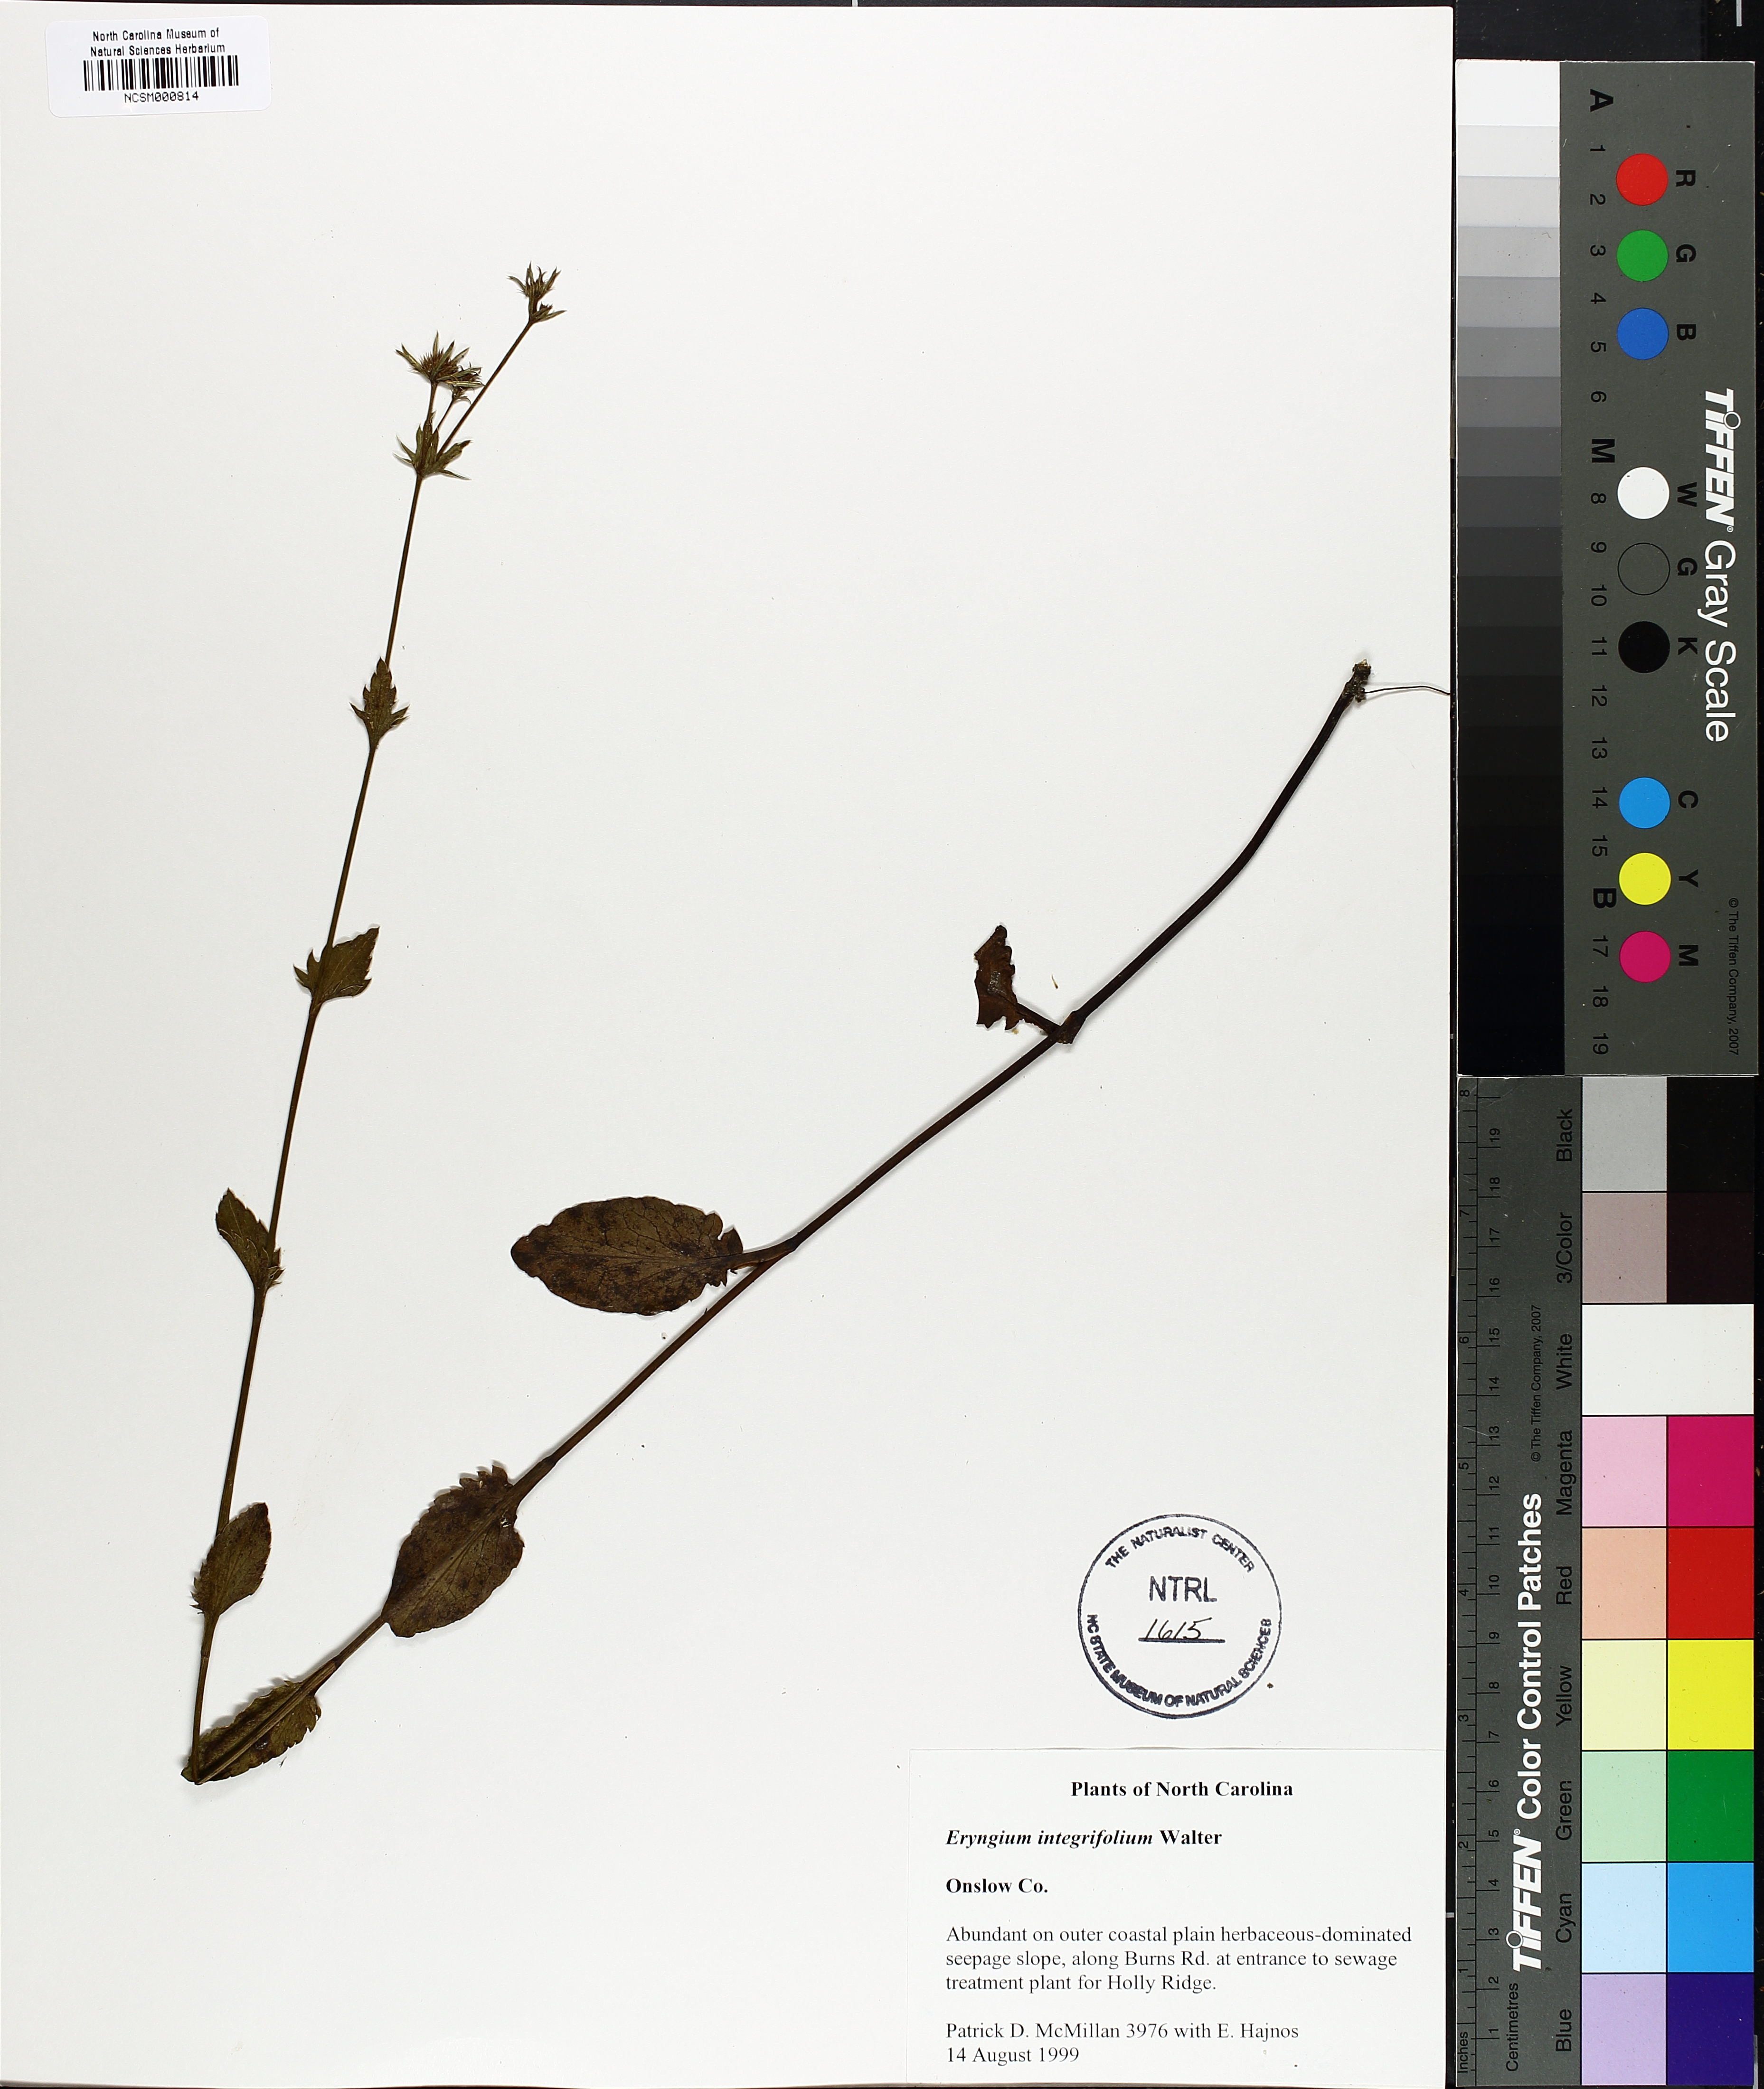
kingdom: Plantae
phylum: Tracheophyta
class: Magnoliopsida
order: Apiales
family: Apiaceae
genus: Eryngium
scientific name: Eryngium integrifolium
